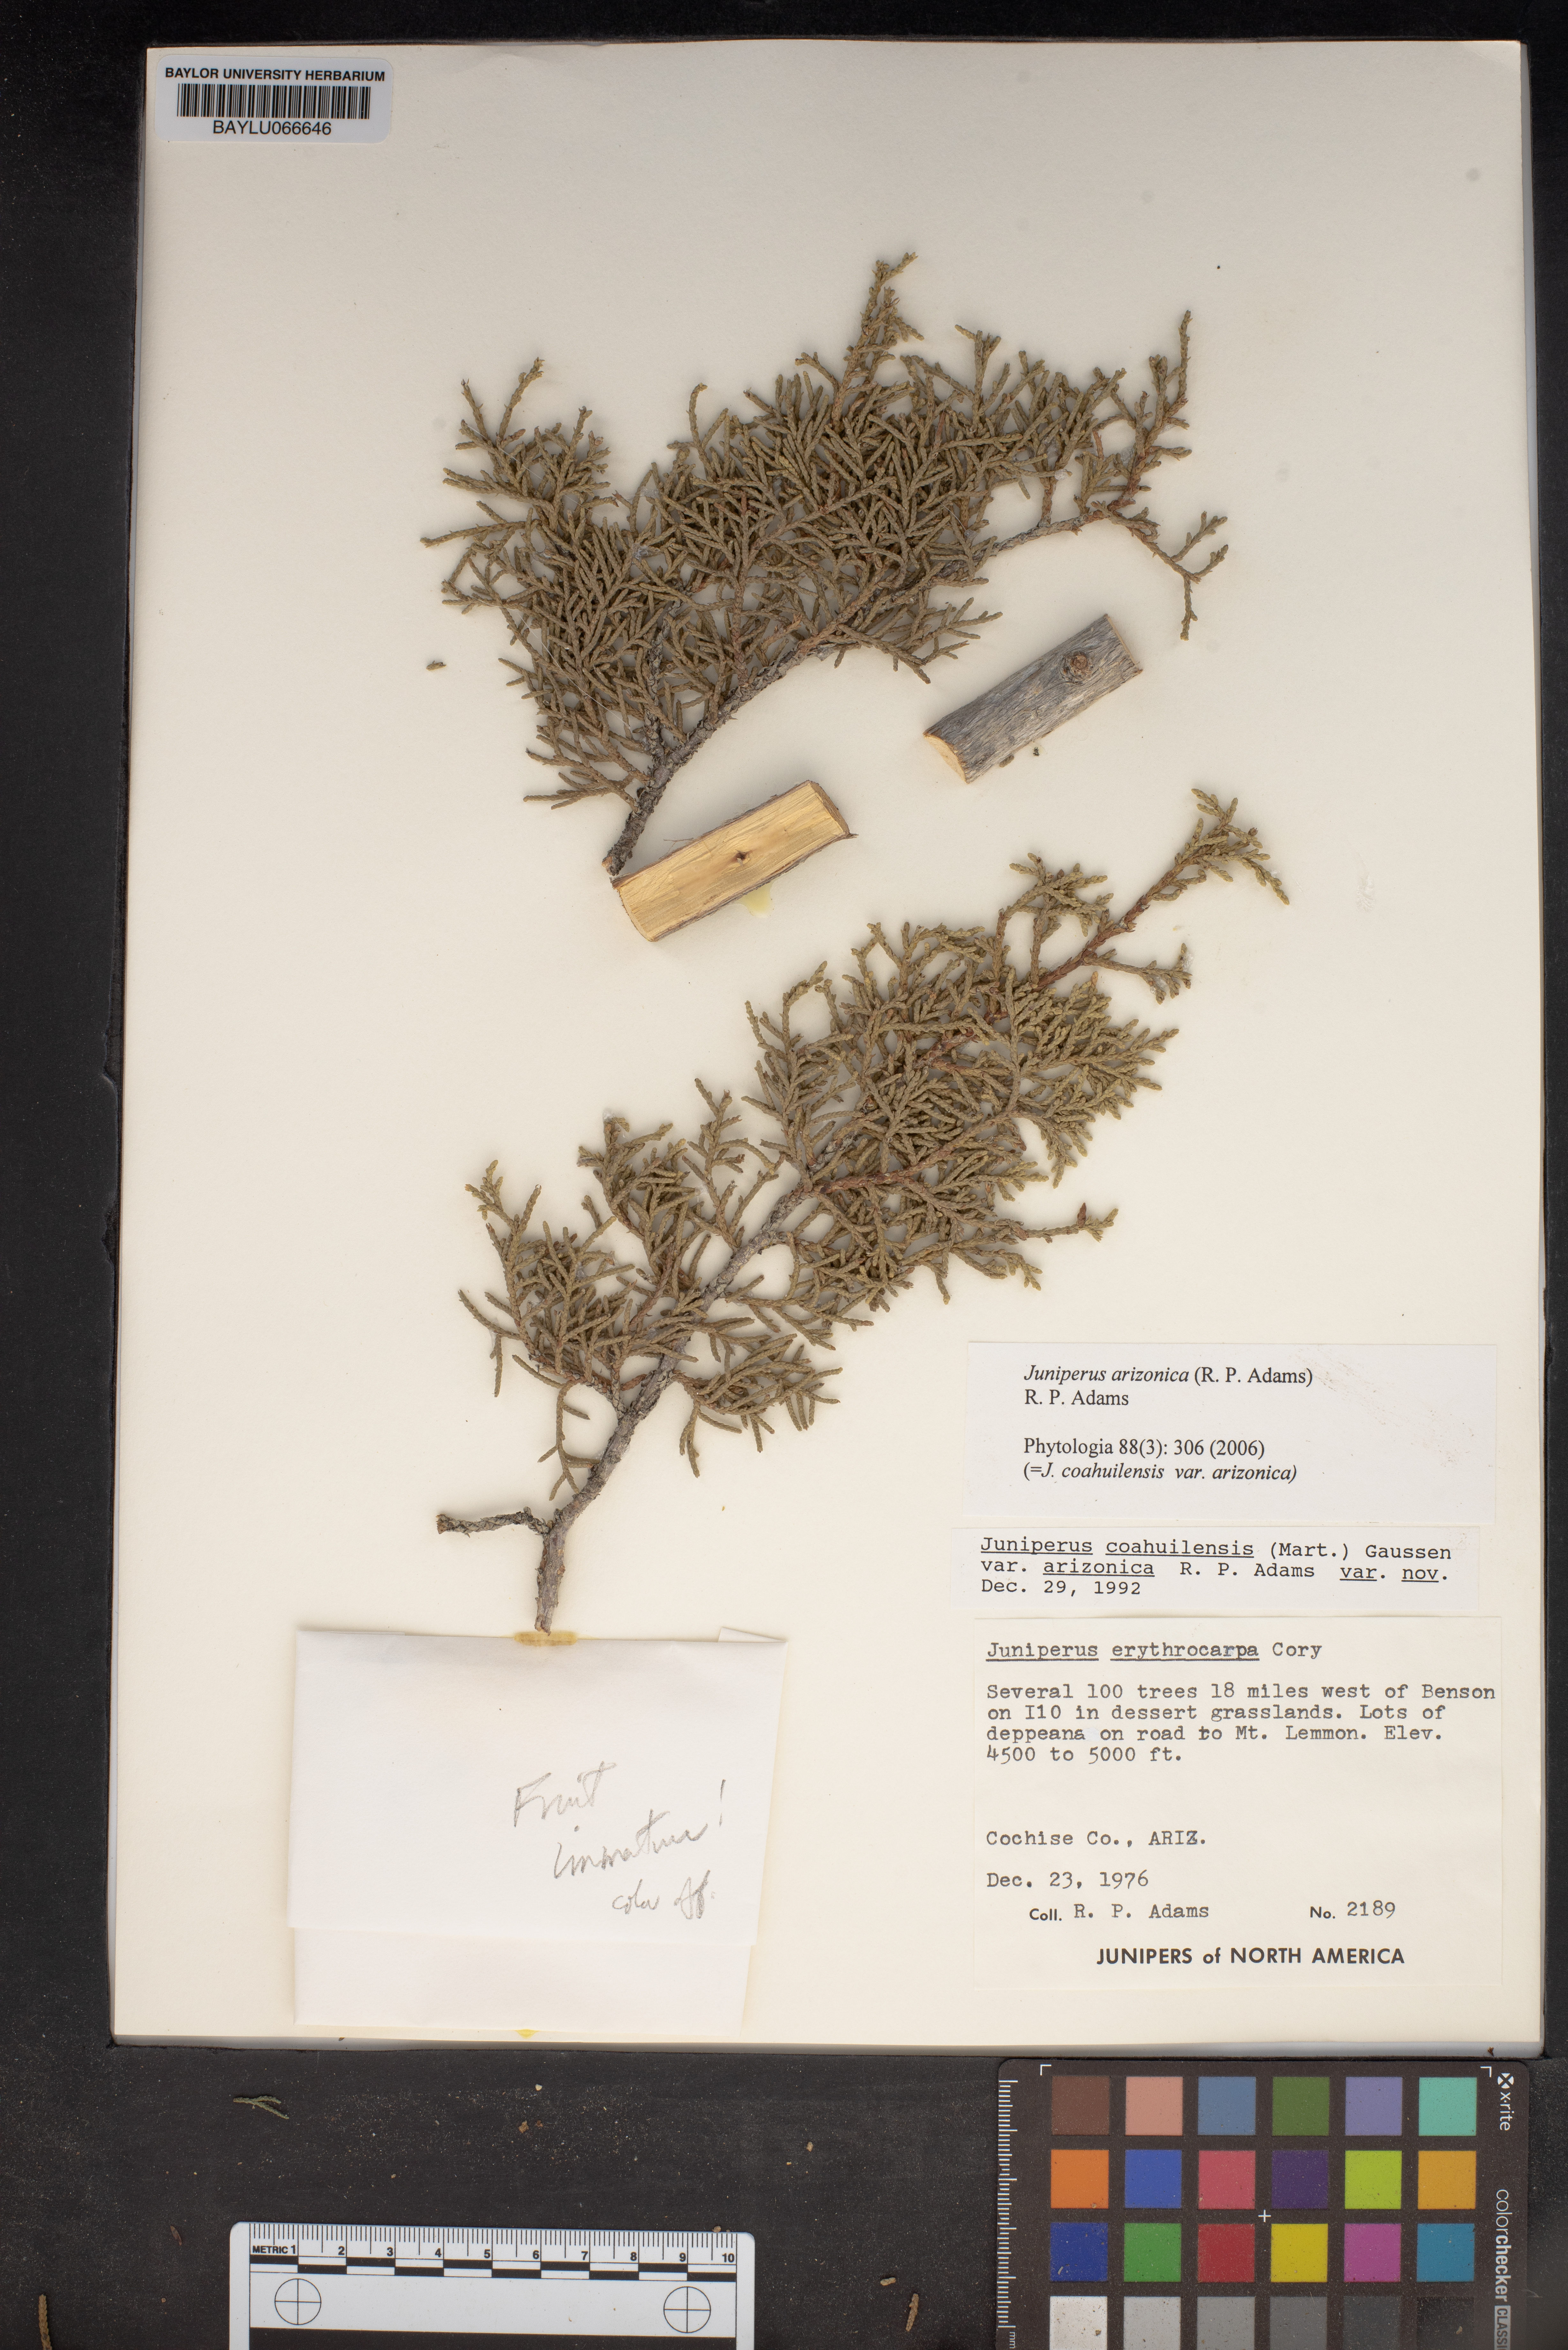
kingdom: Plantae
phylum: Tracheophyta
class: Pinopsida
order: Pinales
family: Cupressaceae
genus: Juniperus
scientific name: Juniperus arizonica
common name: Arizona juniper
